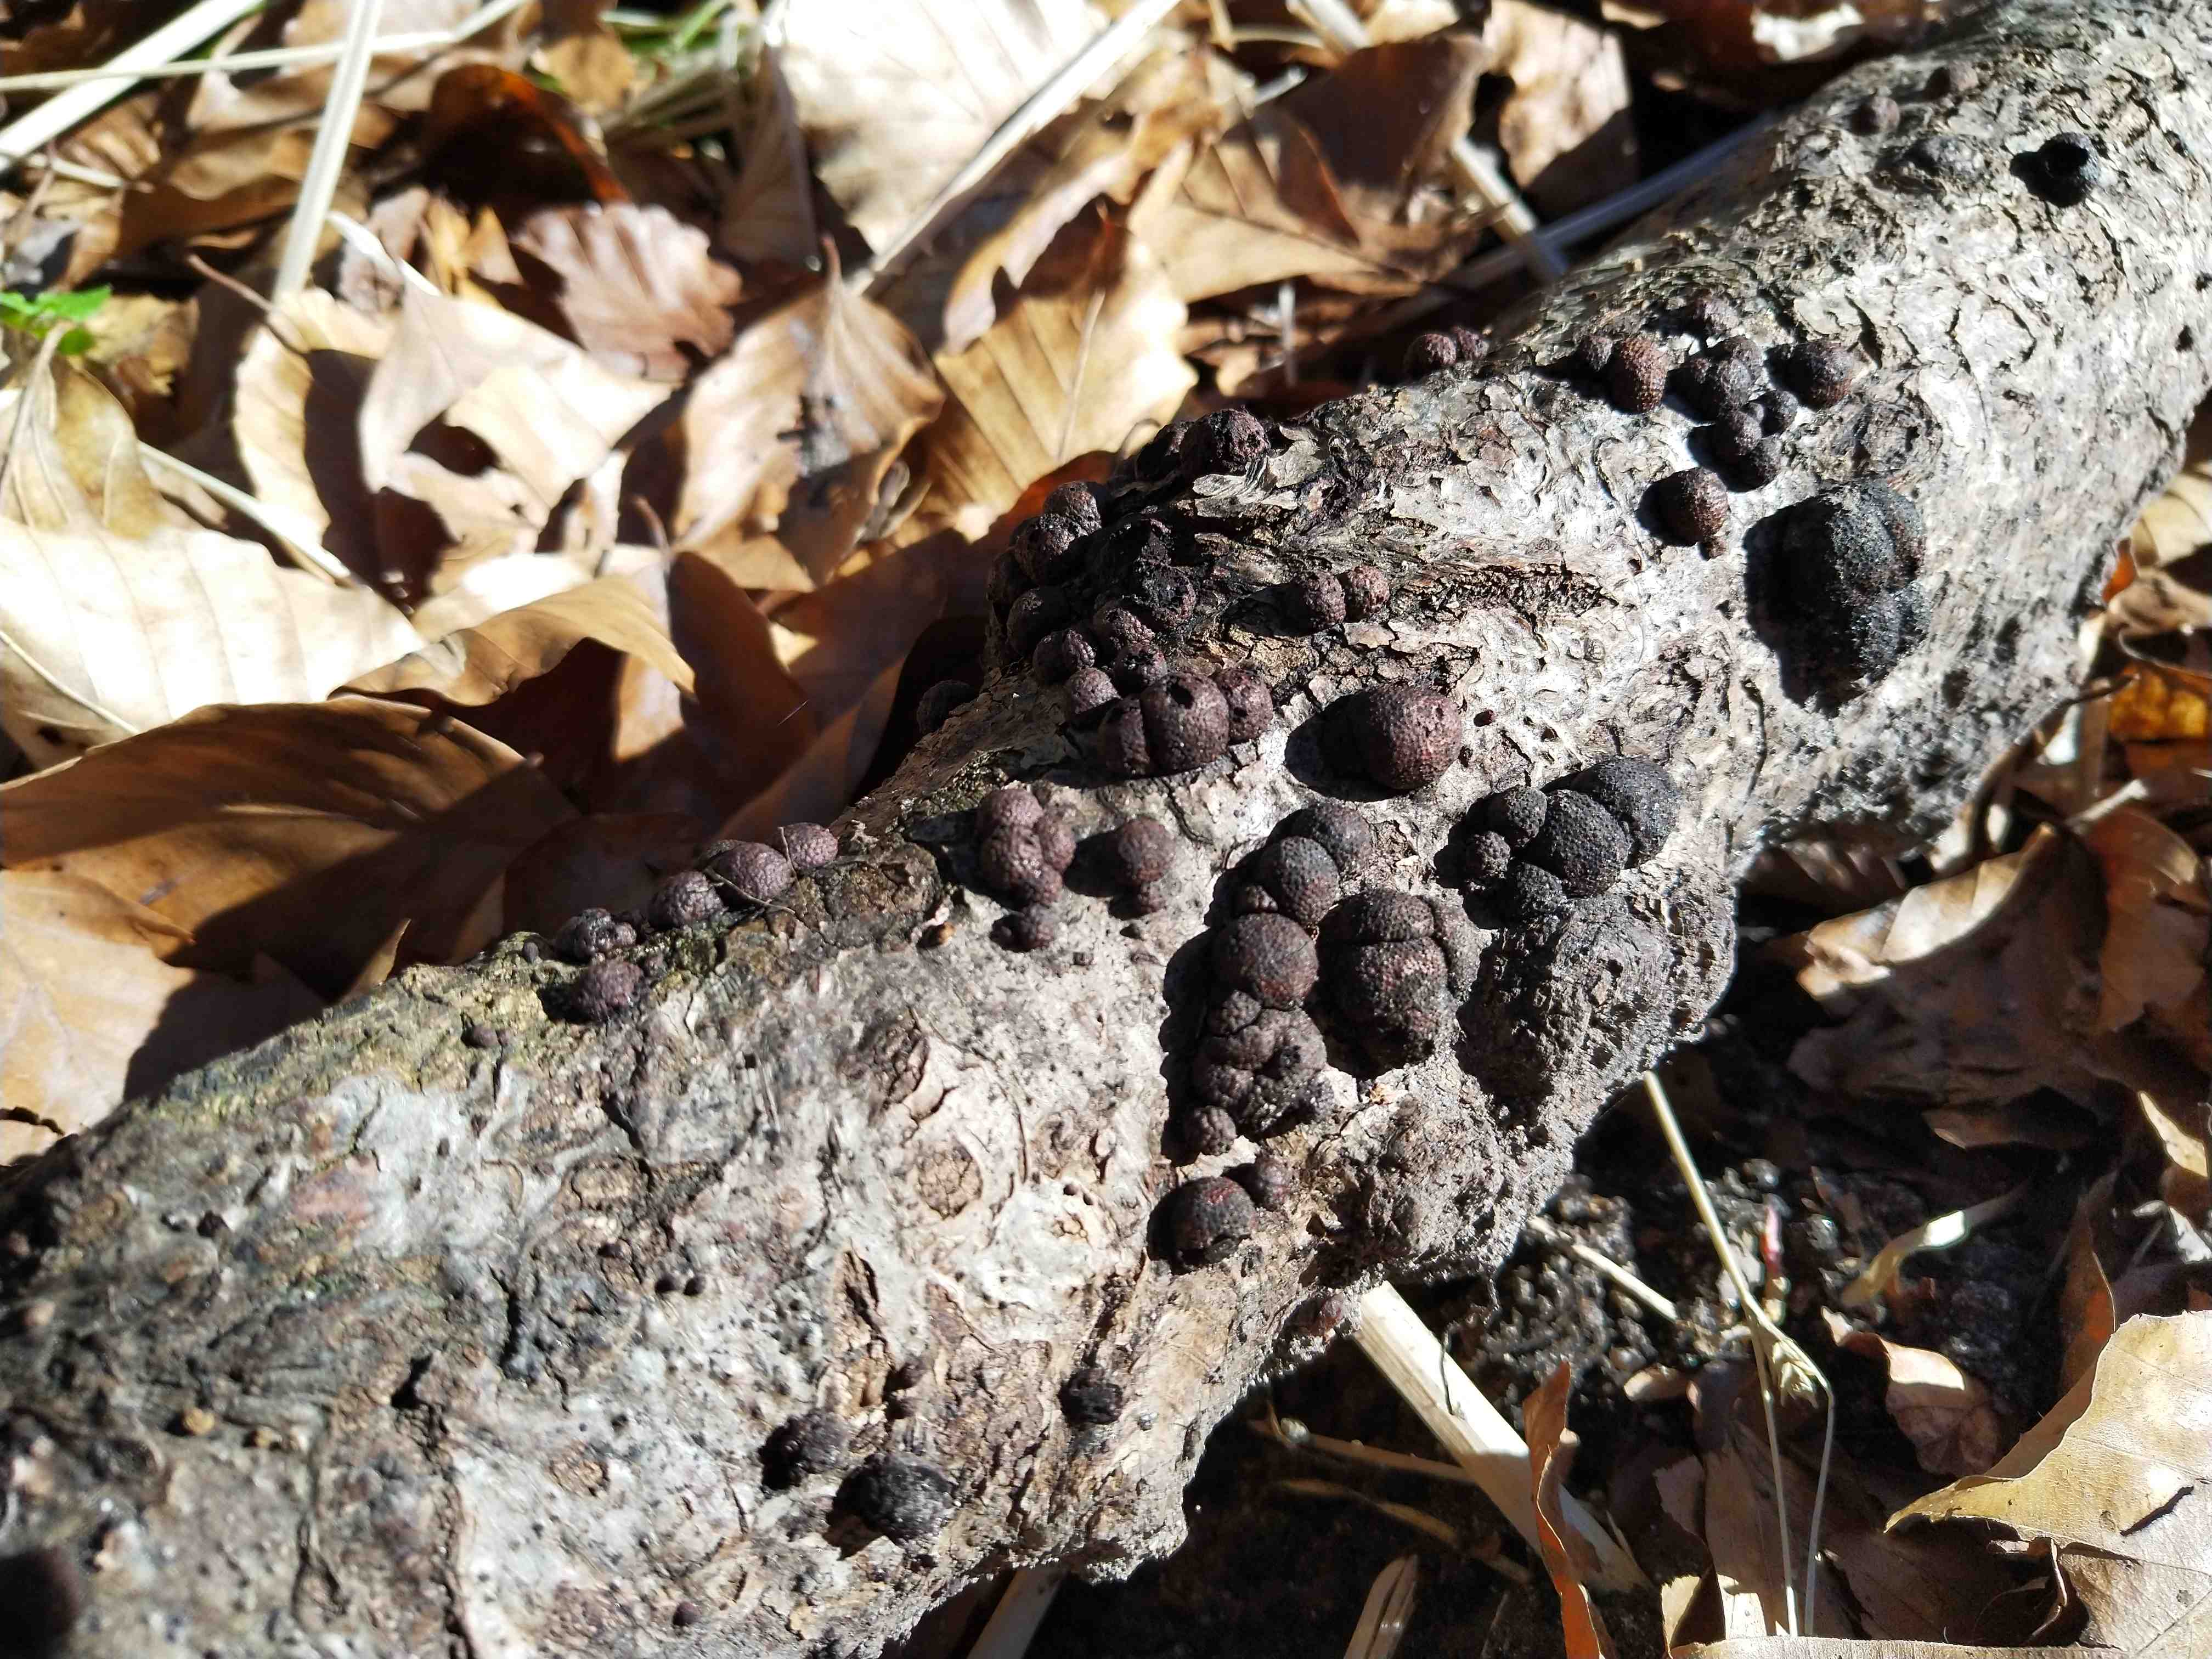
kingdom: Fungi
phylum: Ascomycota
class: Sordariomycetes
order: Xylariales
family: Hypoxylaceae
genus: Hypoxylon
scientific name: Hypoxylon fragiforme
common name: kuljordbær
